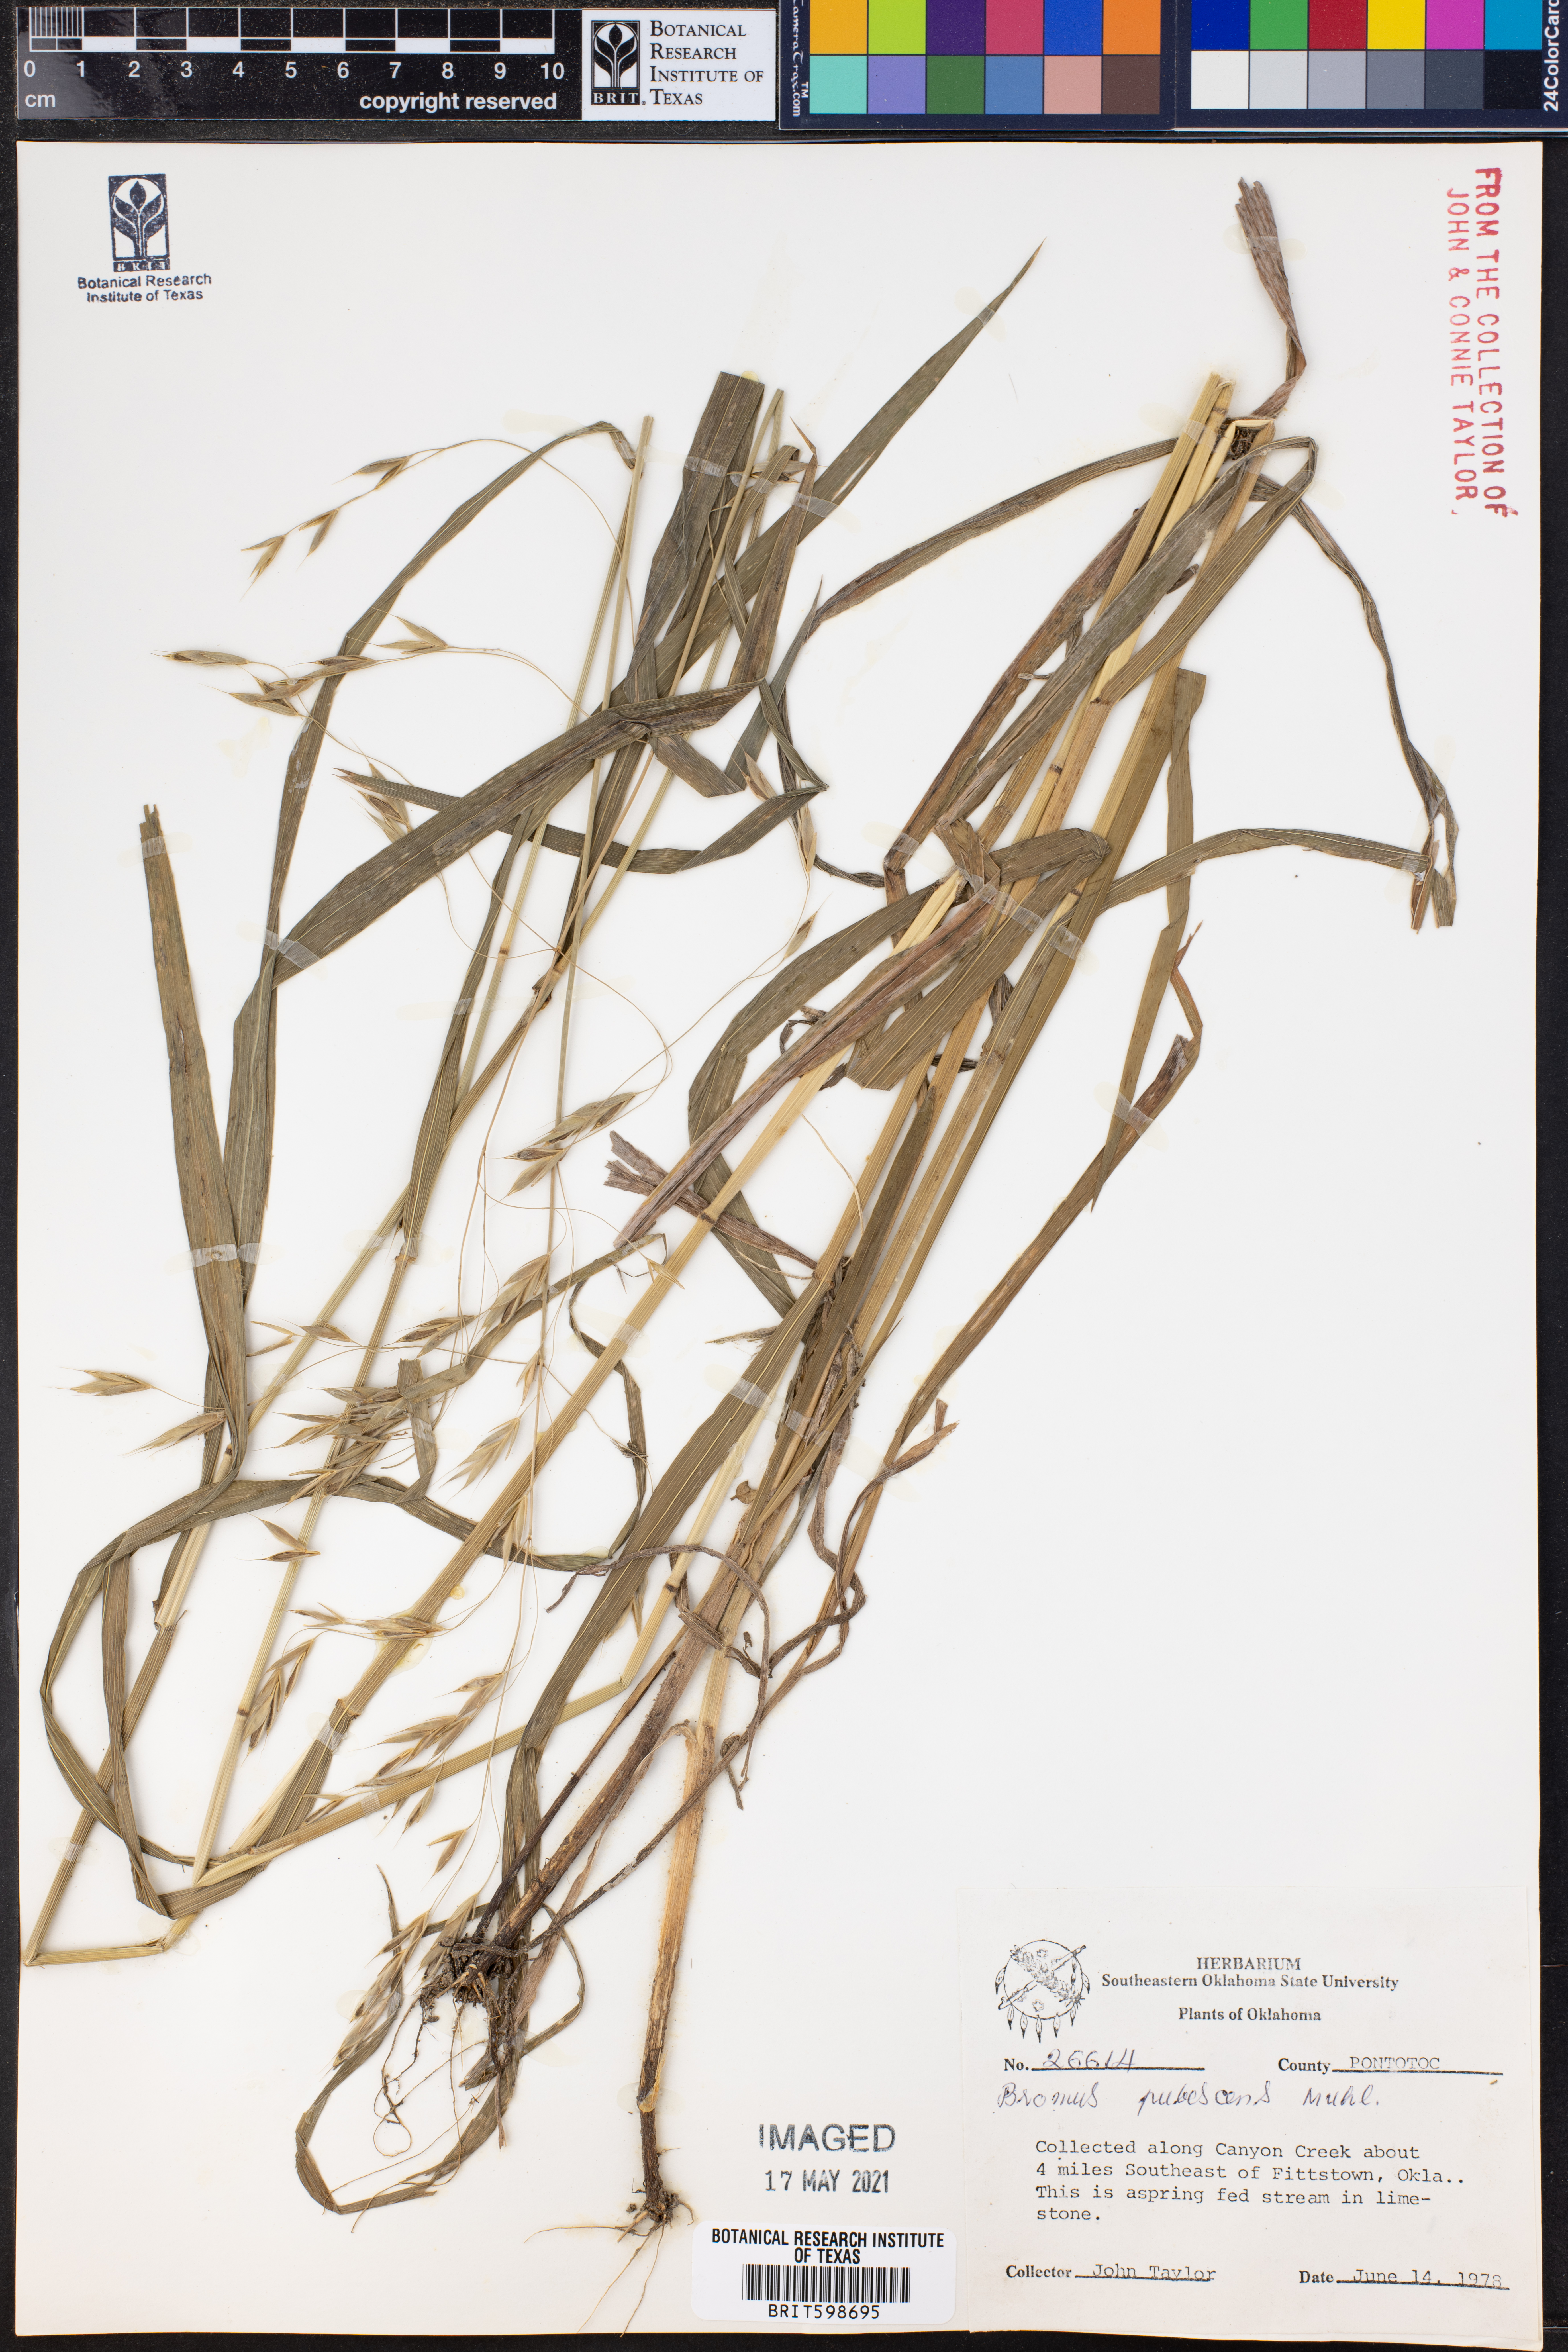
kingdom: Plantae
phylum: Tracheophyta
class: Liliopsida
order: Poales
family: Poaceae
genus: Bromus
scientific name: Bromus pubescens
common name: Hairy wood brome grass
